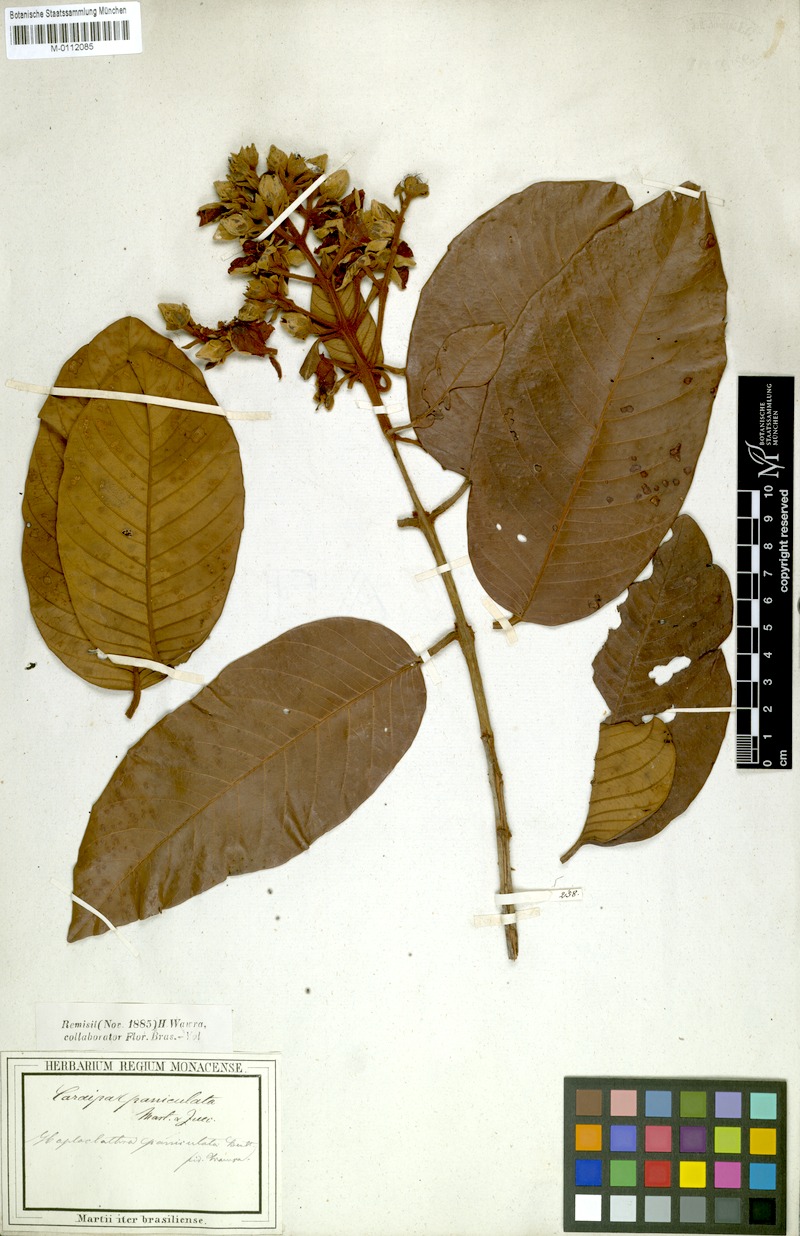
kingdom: Plantae
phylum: Tracheophyta
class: Magnoliopsida
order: Malpighiales
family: Calophyllaceae
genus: Haploclathra
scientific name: Haploclathra paniculata
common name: Red-wood
